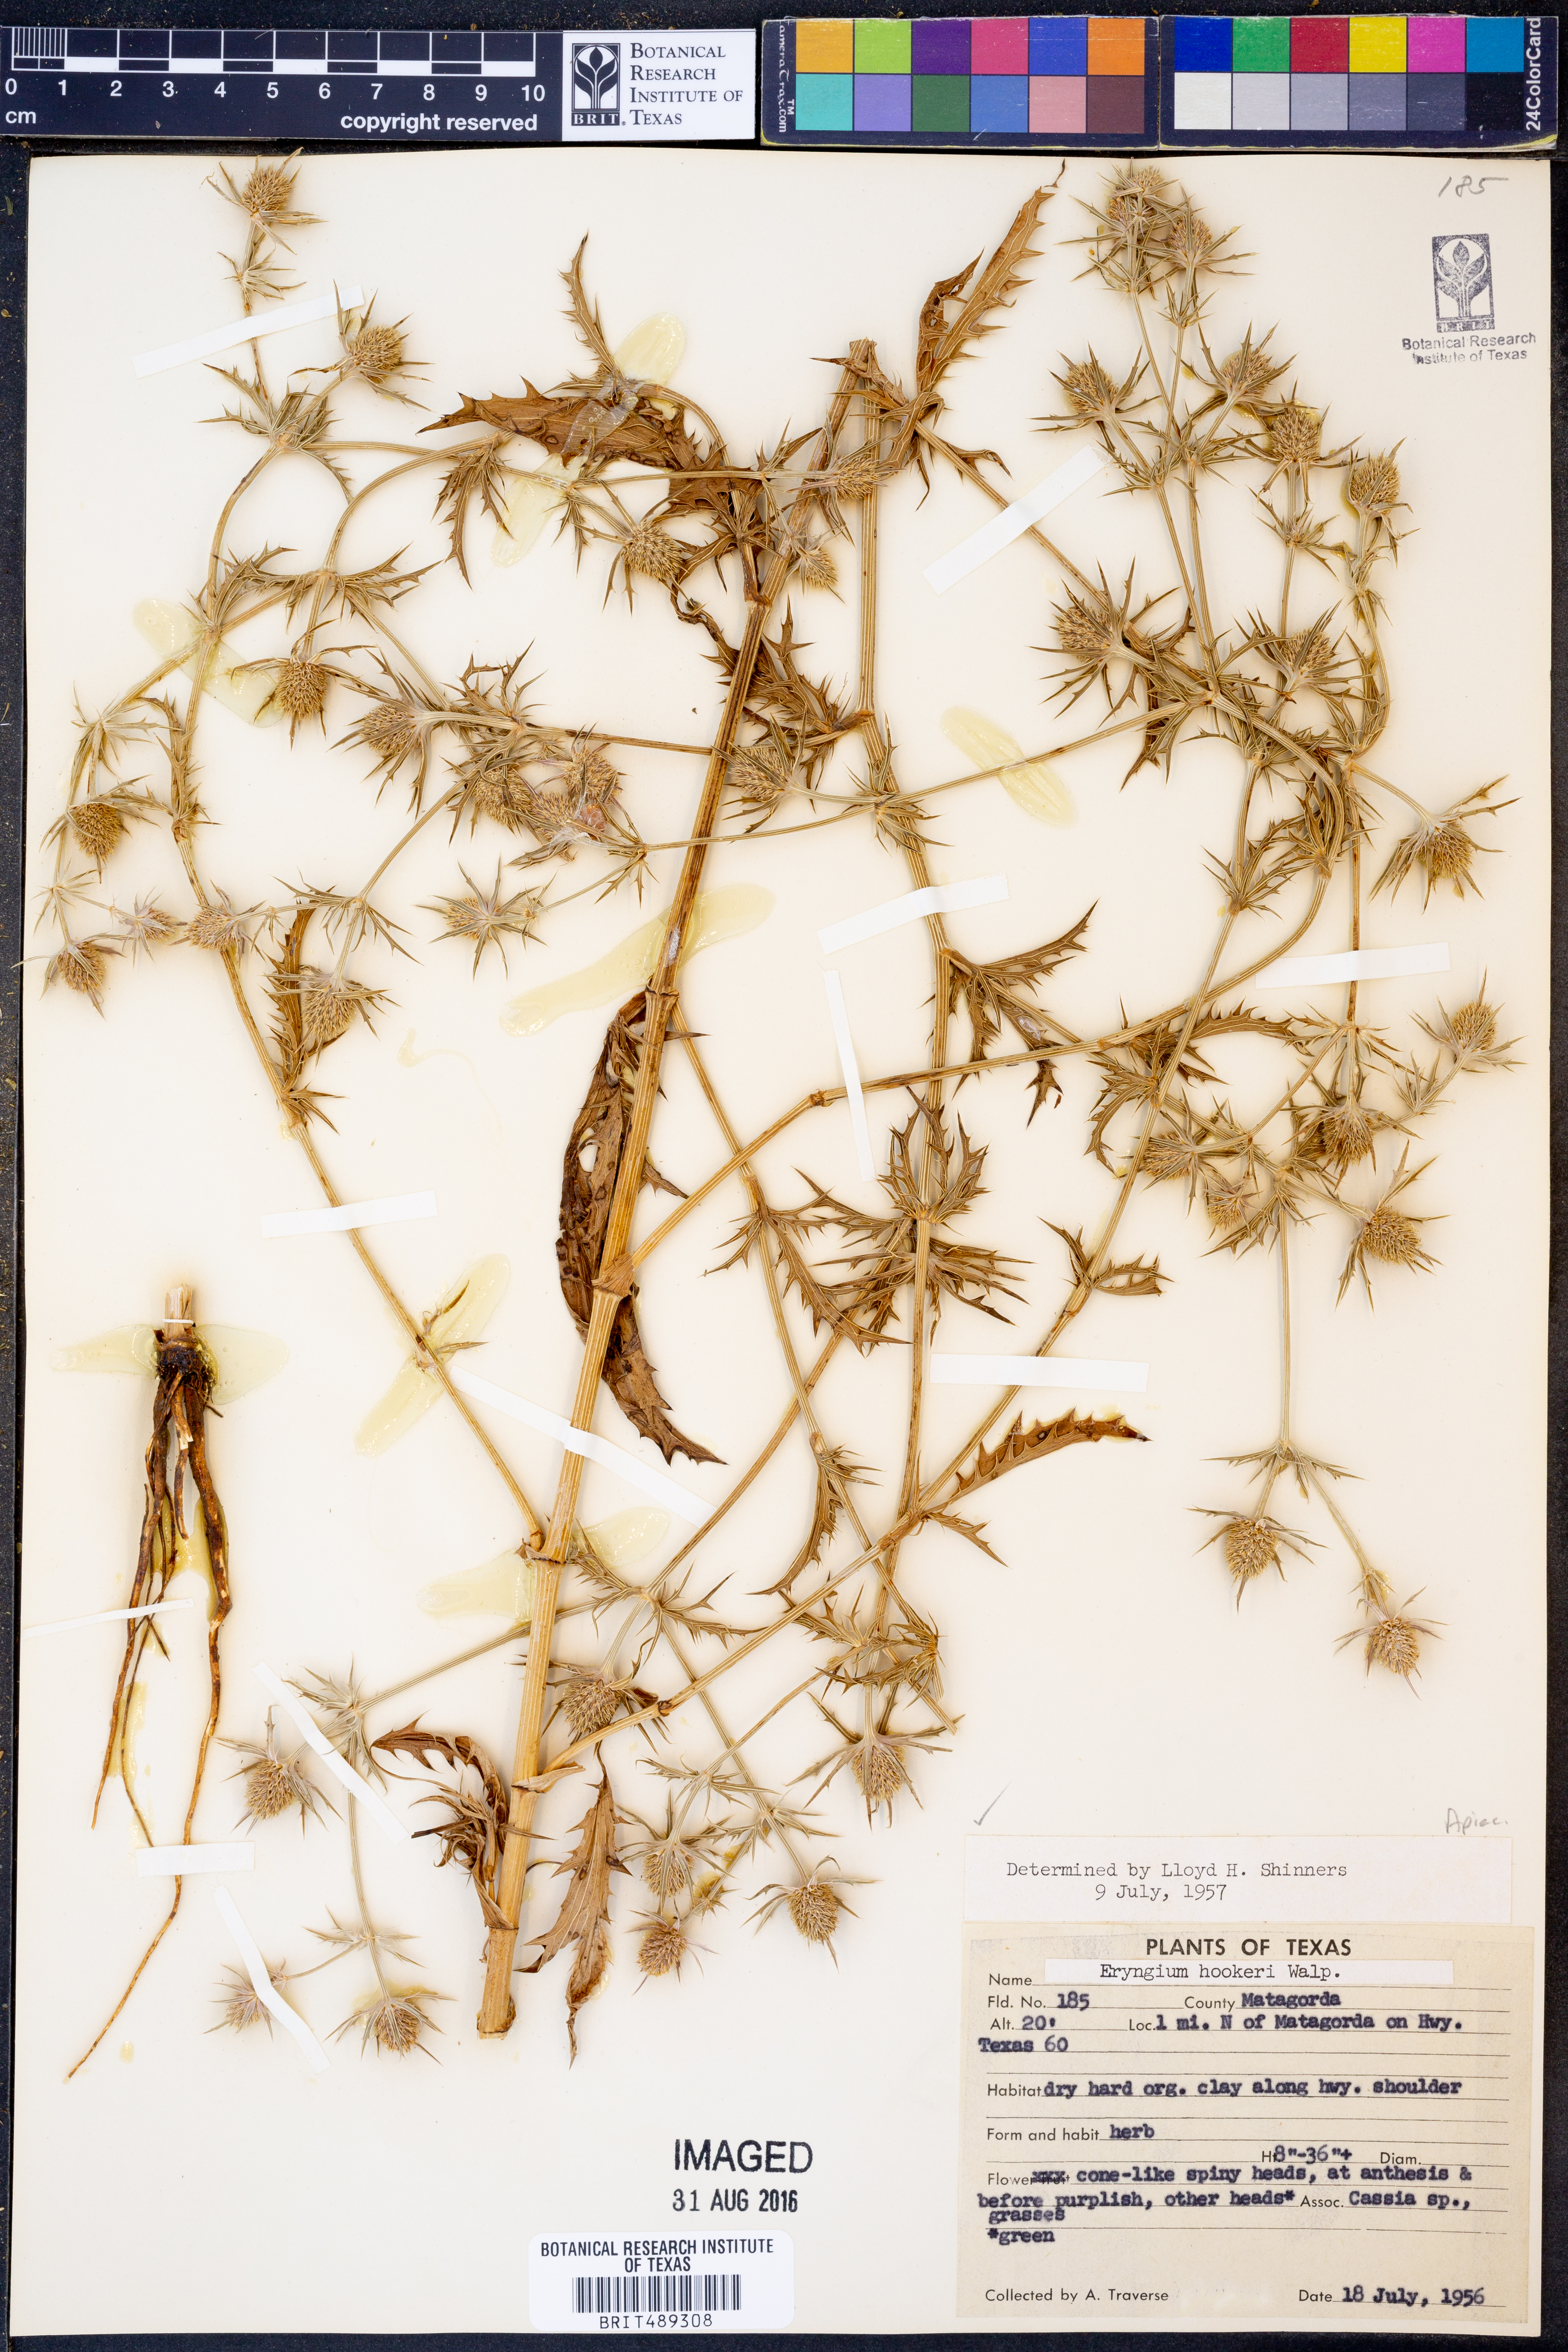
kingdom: Plantae
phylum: Tracheophyta
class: Magnoliopsida
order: Apiales
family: Apiaceae
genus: Eryngium
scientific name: Eryngium hookeri
